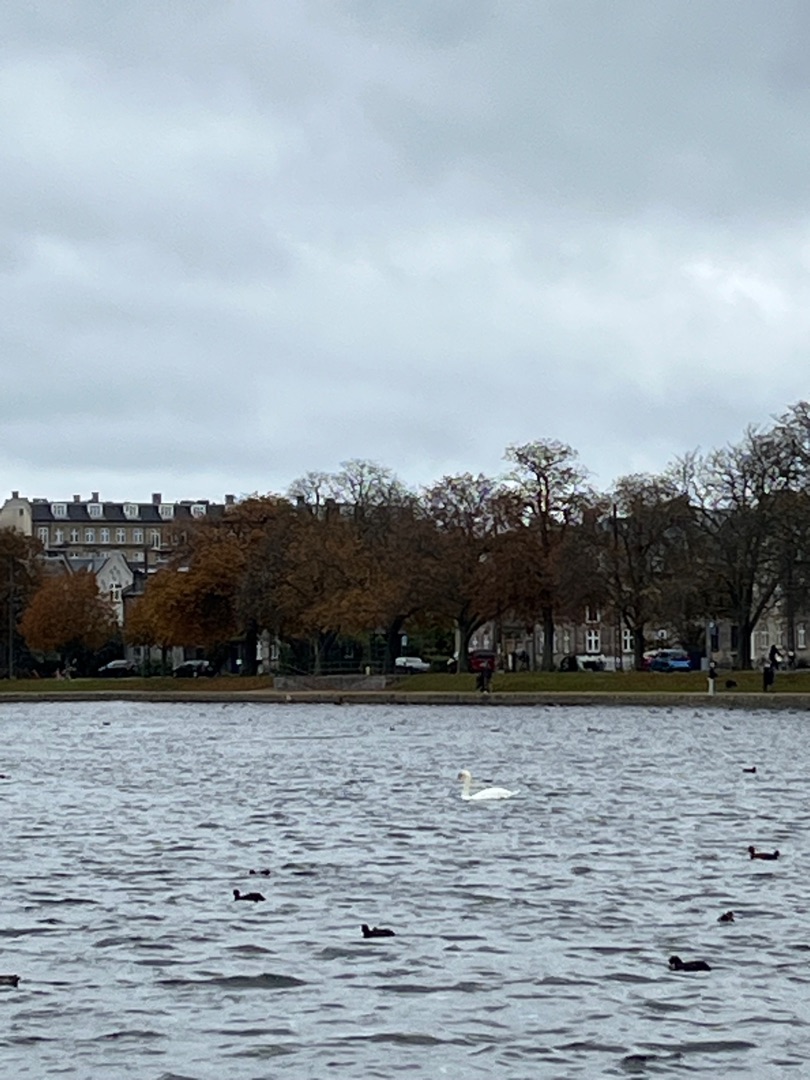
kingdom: Animalia
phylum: Chordata
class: Aves
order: Anseriformes
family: Anatidae
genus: Cygnus
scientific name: Cygnus olor
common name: Knopsvane
